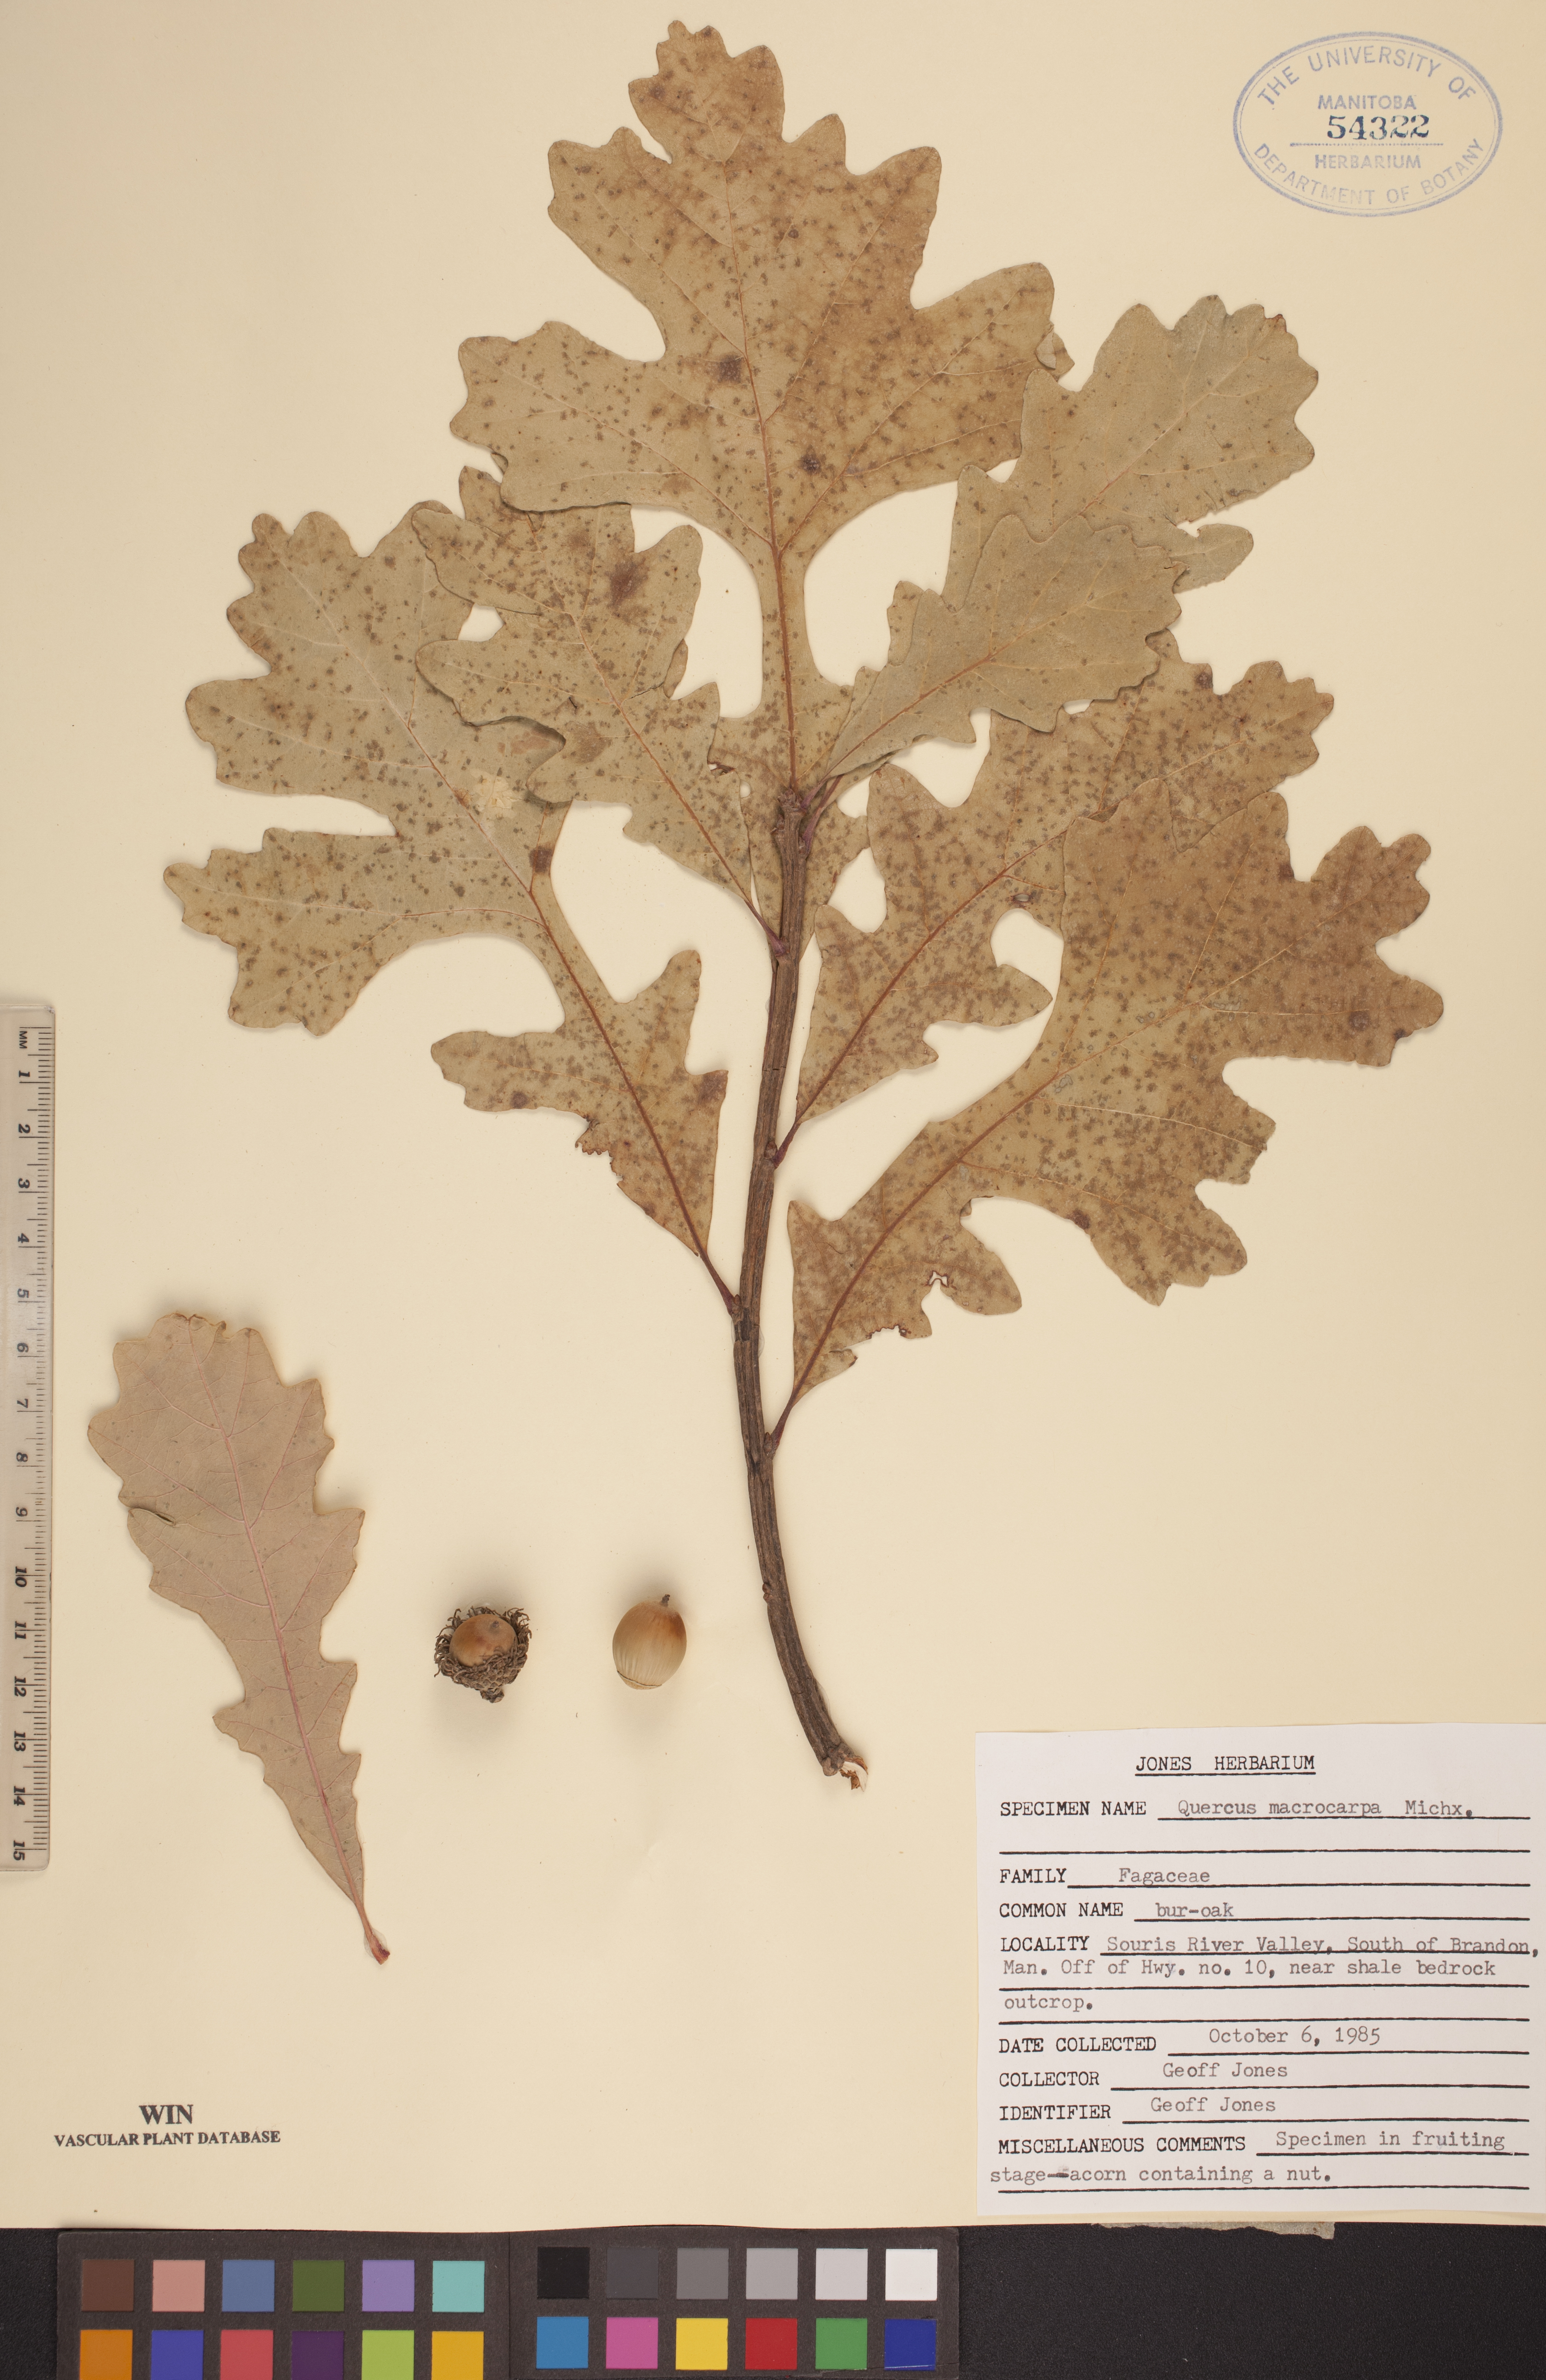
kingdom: Plantae
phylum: Tracheophyta
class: Magnoliopsida
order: Fagales
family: Fagaceae
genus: Quercus
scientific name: Quercus macrocarpa
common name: Bur oak
